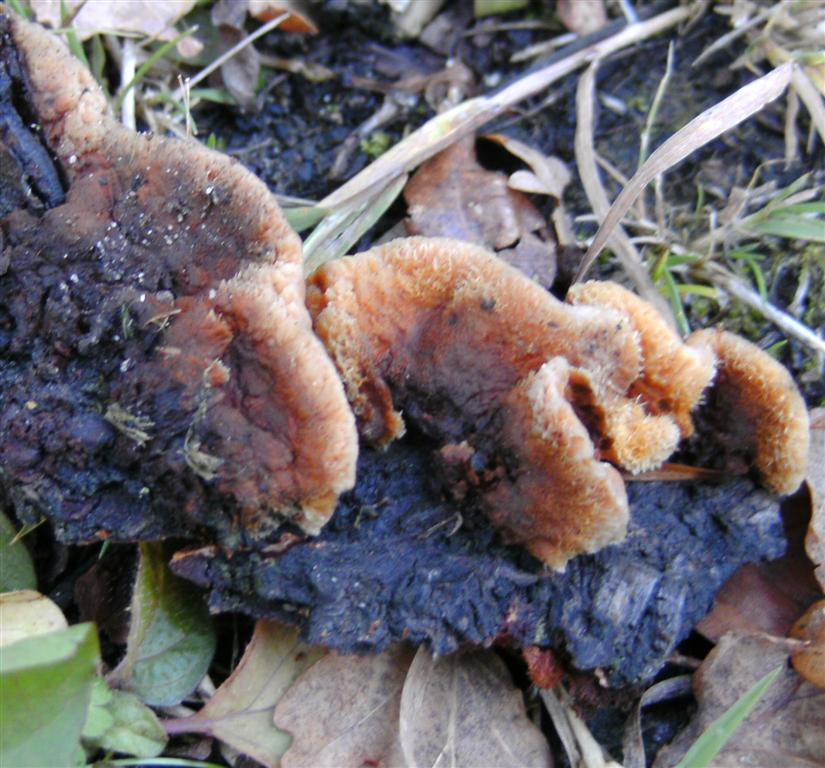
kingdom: Fungi
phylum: Basidiomycota
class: Agaricomycetes
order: Gloeophyllales
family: Gloeophyllaceae
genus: Gloeophyllum
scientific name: Gloeophyllum sepiarium
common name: fyrre-korkhat
